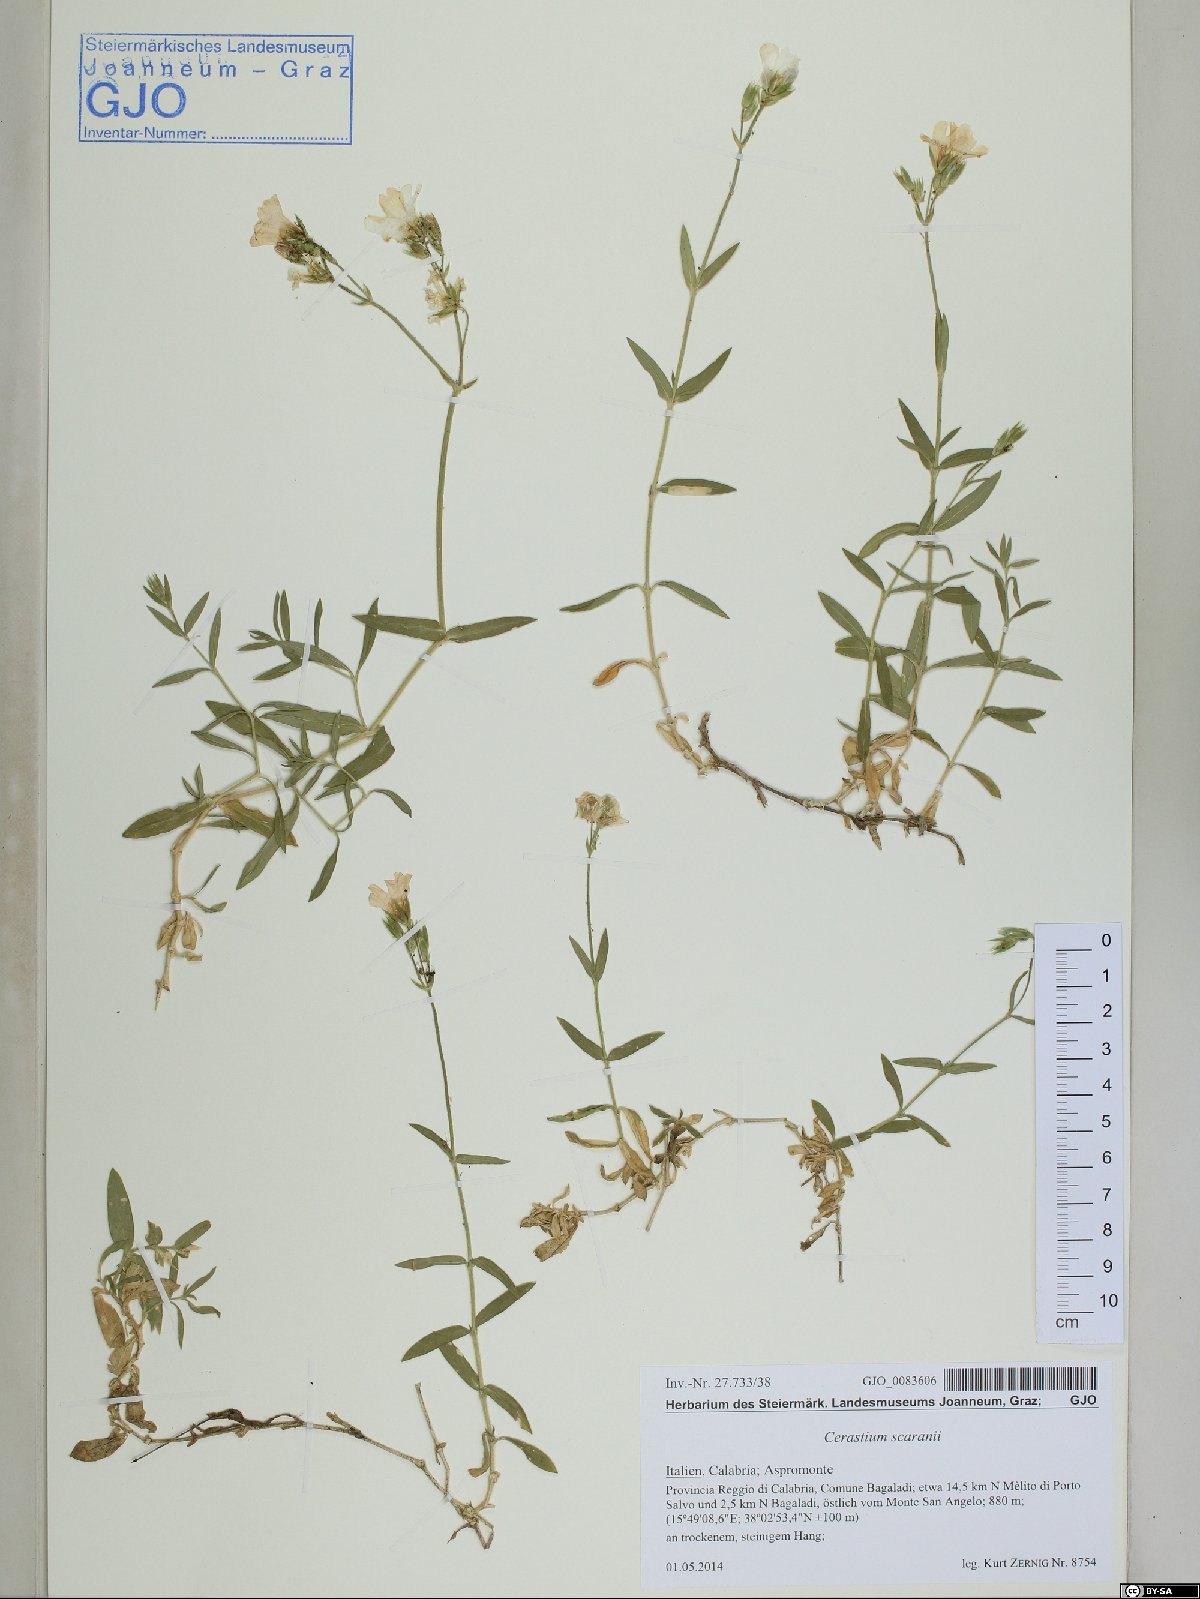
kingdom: Plantae
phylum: Tracheophyta
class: Magnoliopsida
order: Caryophyllales
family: Caryophyllaceae
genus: Cerastium
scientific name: Cerastium scaranii
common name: Italian mouse-ear
